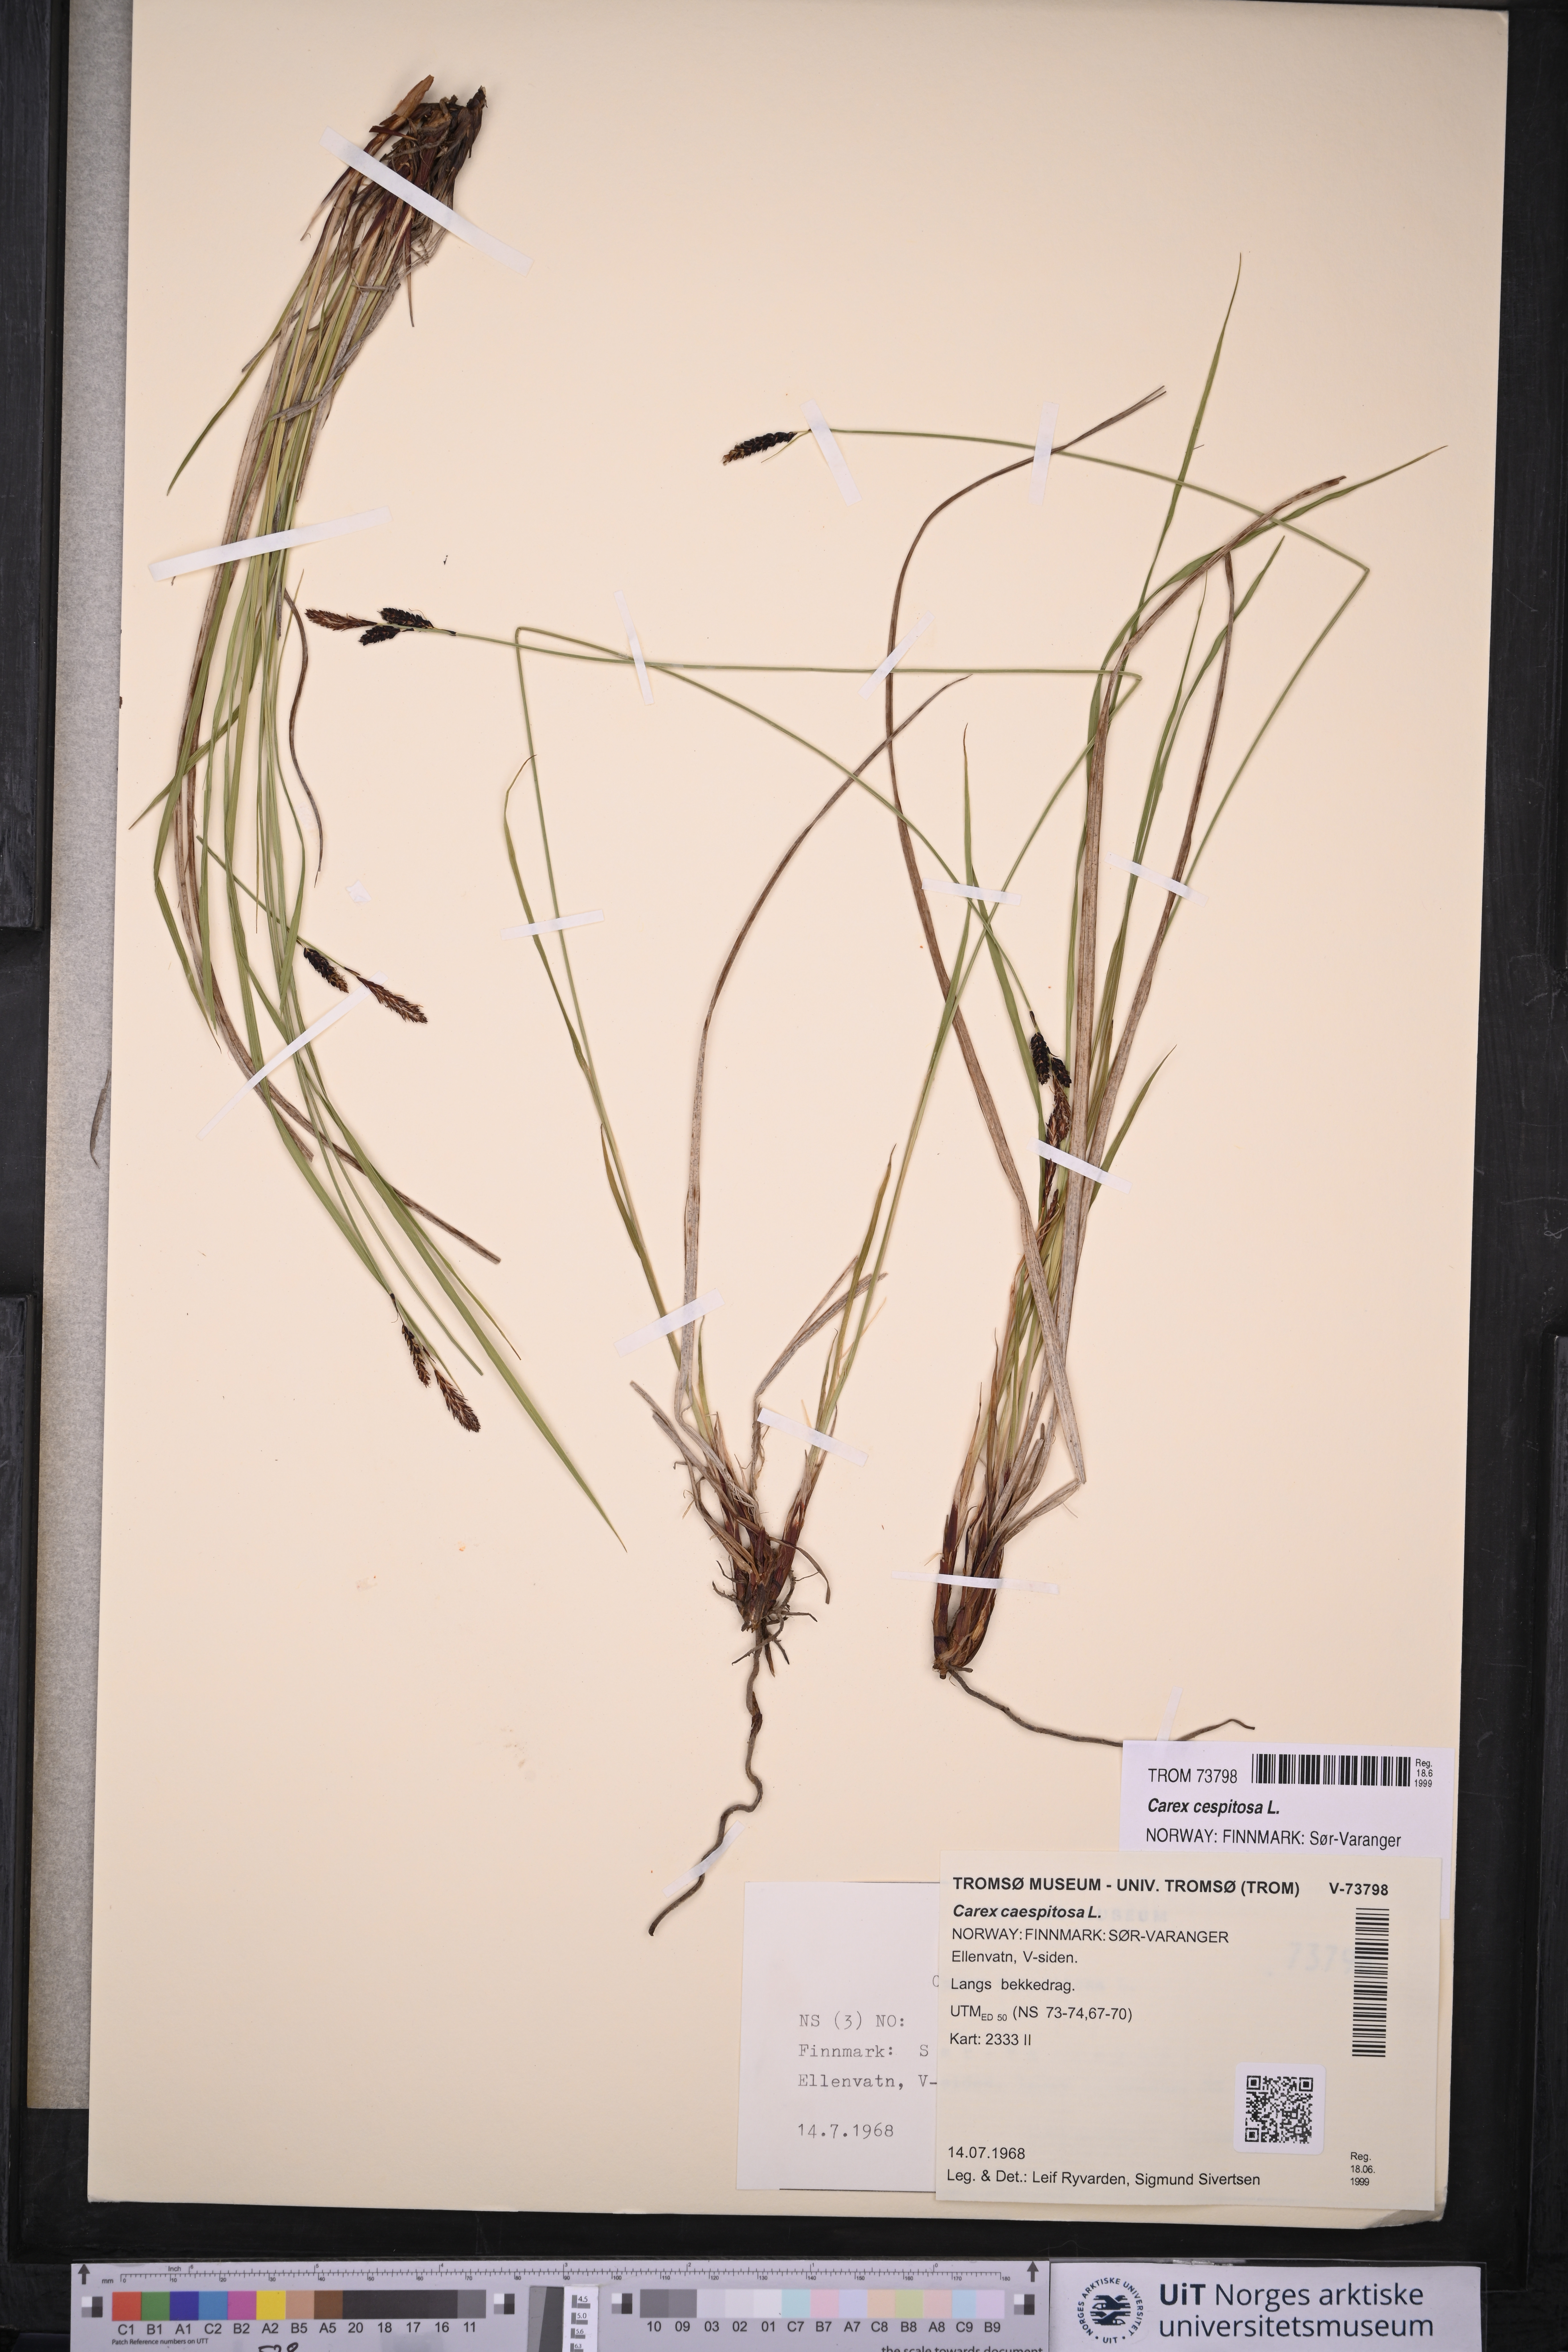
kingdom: Plantae
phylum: Tracheophyta
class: Liliopsida
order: Poales
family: Cyperaceae
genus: Carex
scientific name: Carex cespitosa
